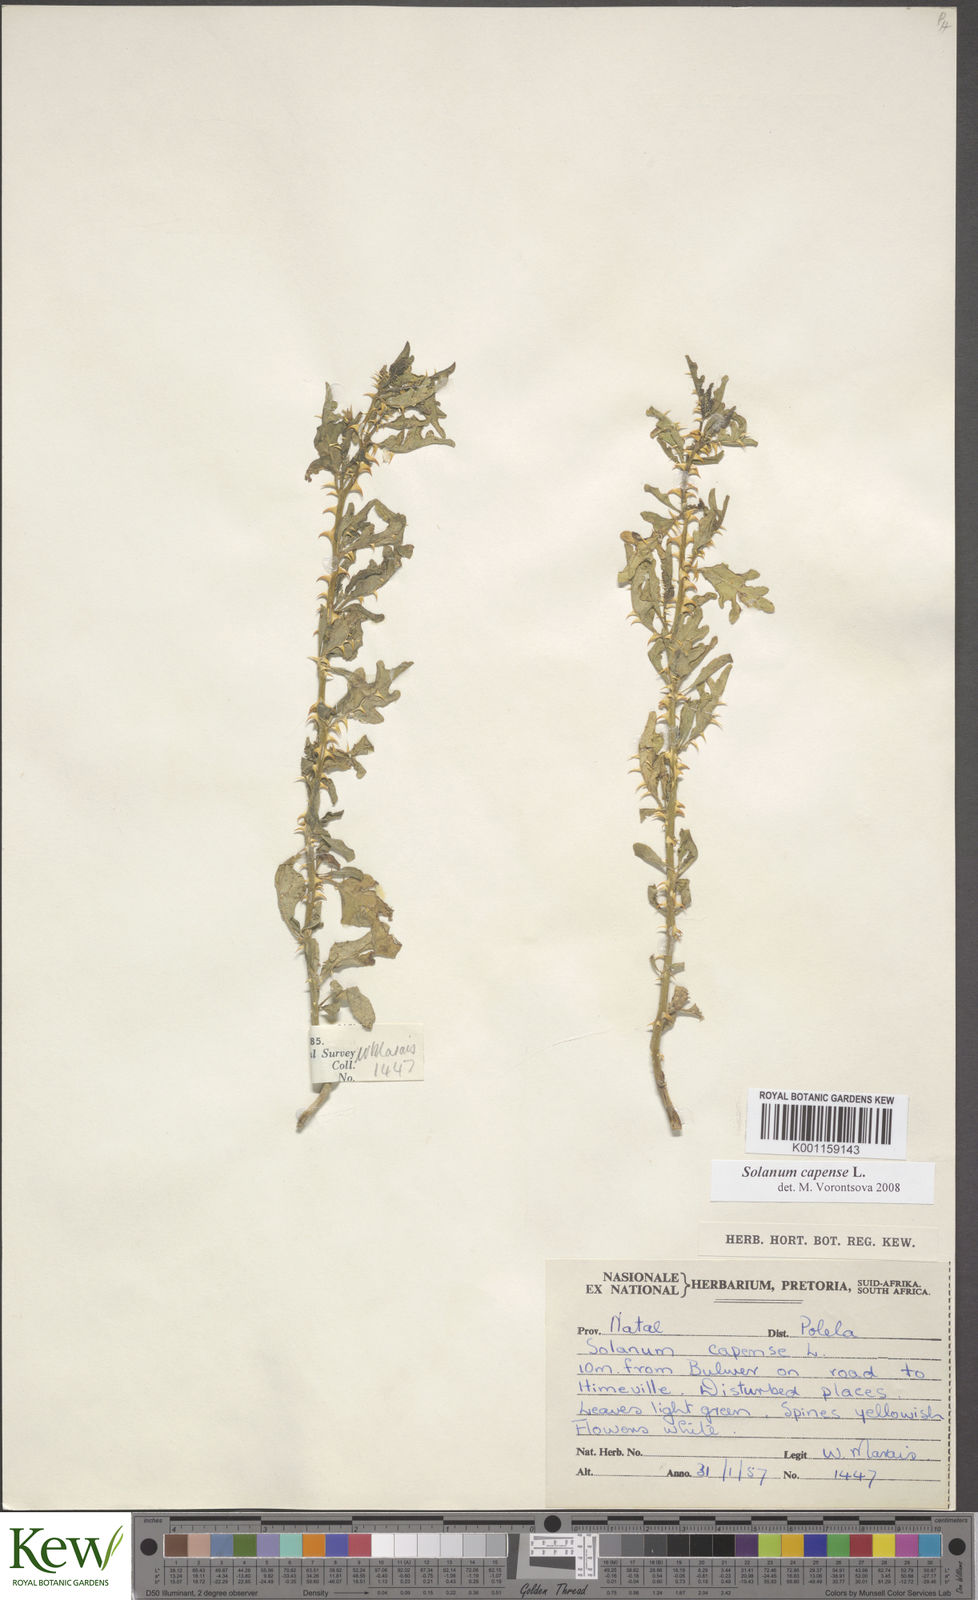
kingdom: Plantae
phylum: Tracheophyta
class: Magnoliopsida
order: Solanales
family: Solanaceae
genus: Solanum
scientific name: Solanum capense
